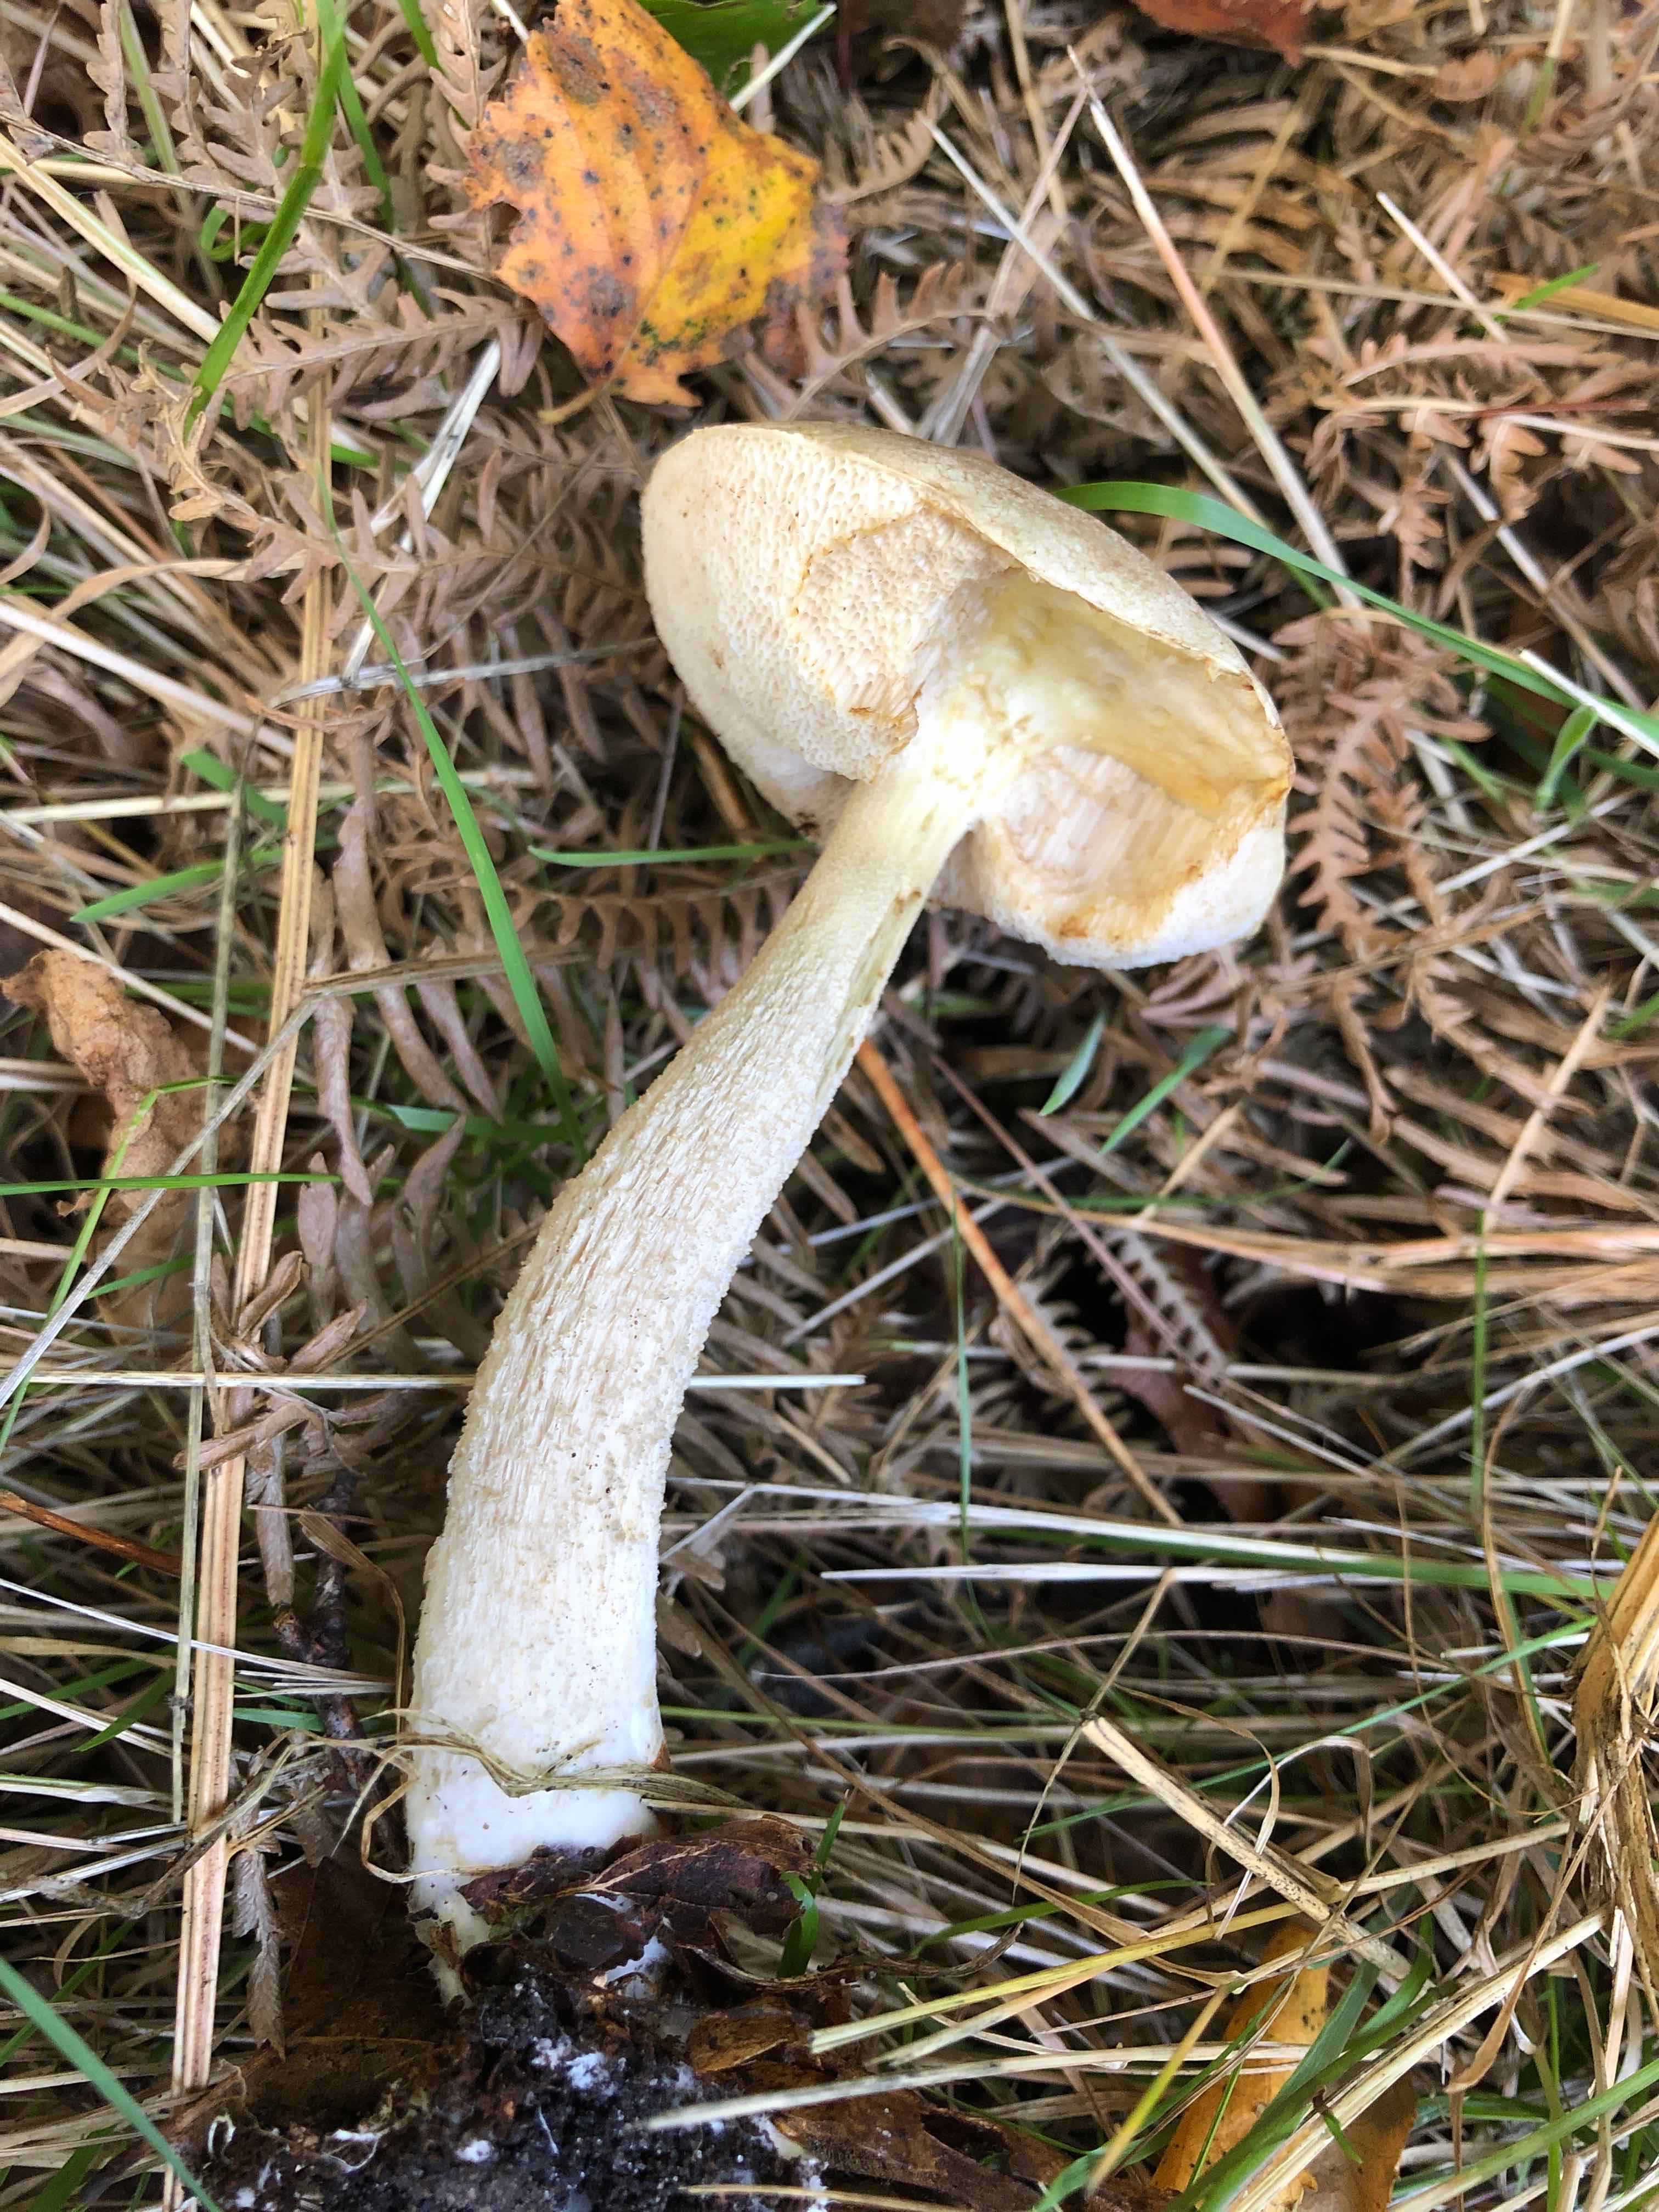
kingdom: Fungi
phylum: Basidiomycota
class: Agaricomycetes
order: Boletales
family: Boletaceae
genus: Leccinum
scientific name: Leccinum
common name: skælrørhat
